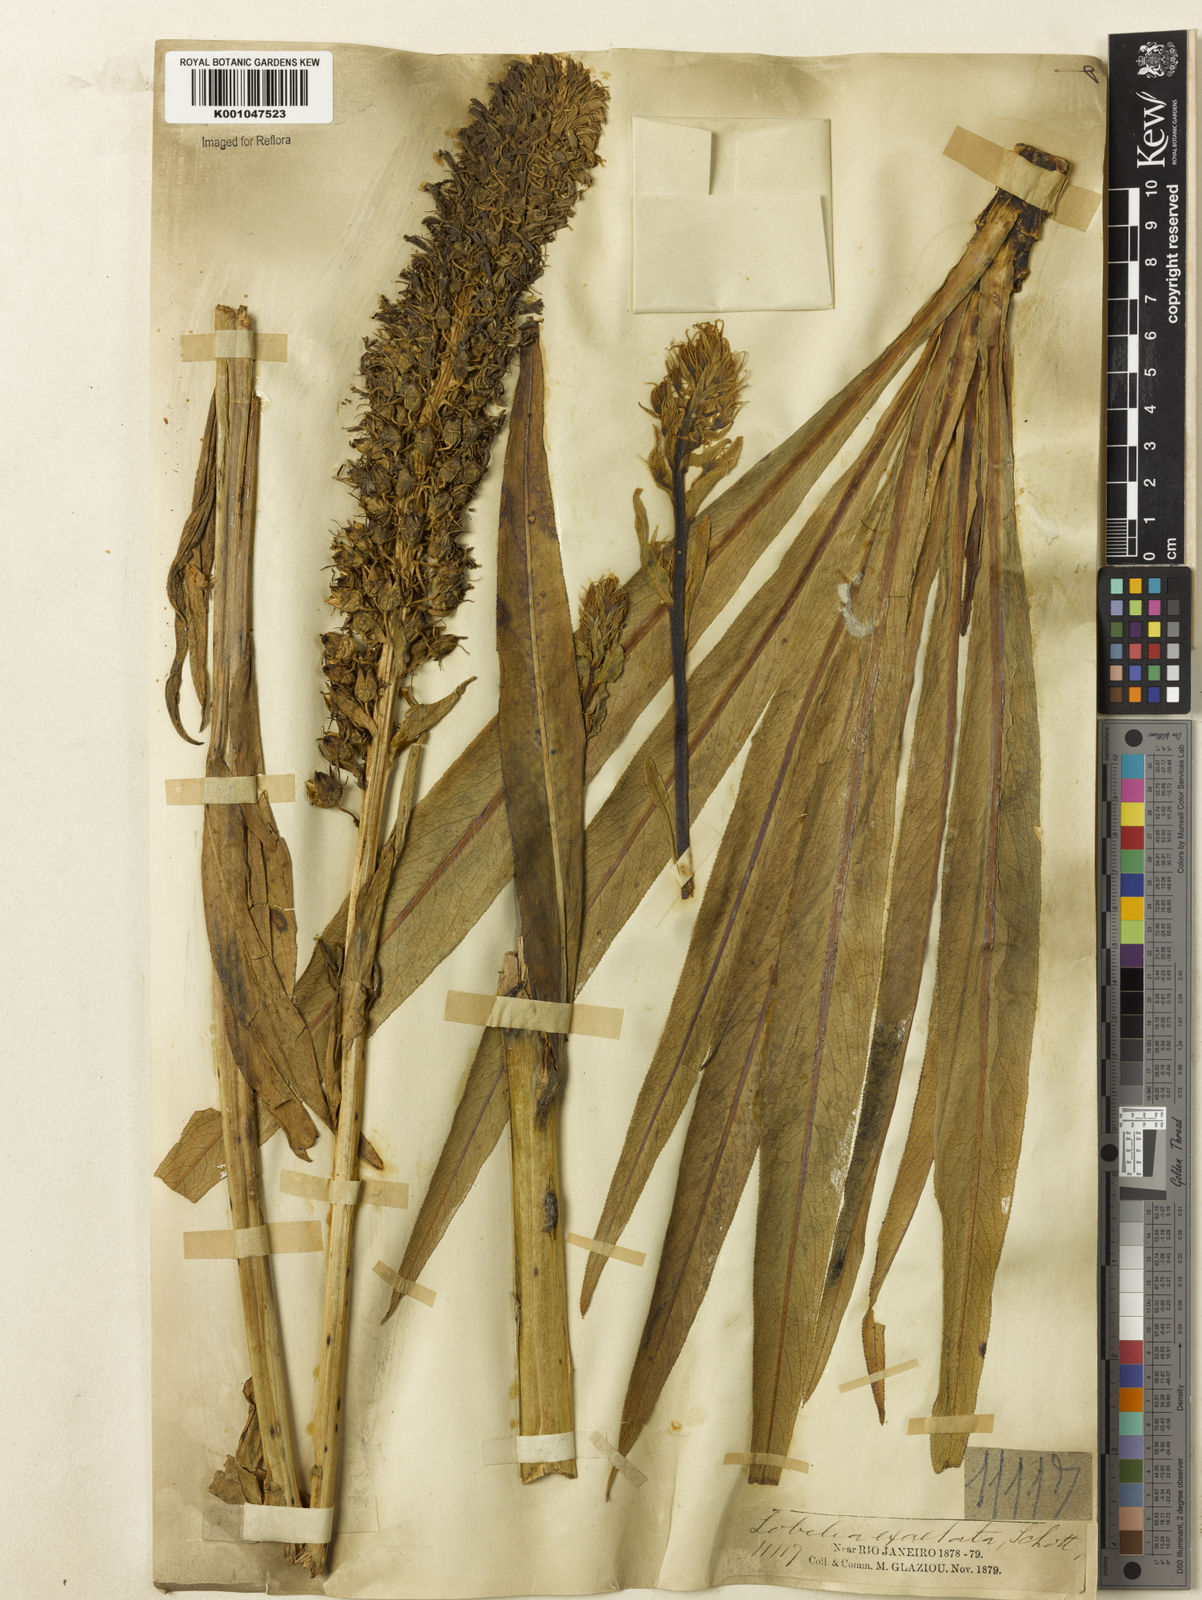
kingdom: Plantae
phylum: Tracheophyta
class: Magnoliopsida
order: Asterales
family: Campanulaceae
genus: Lobelia
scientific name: Lobelia exaltata
